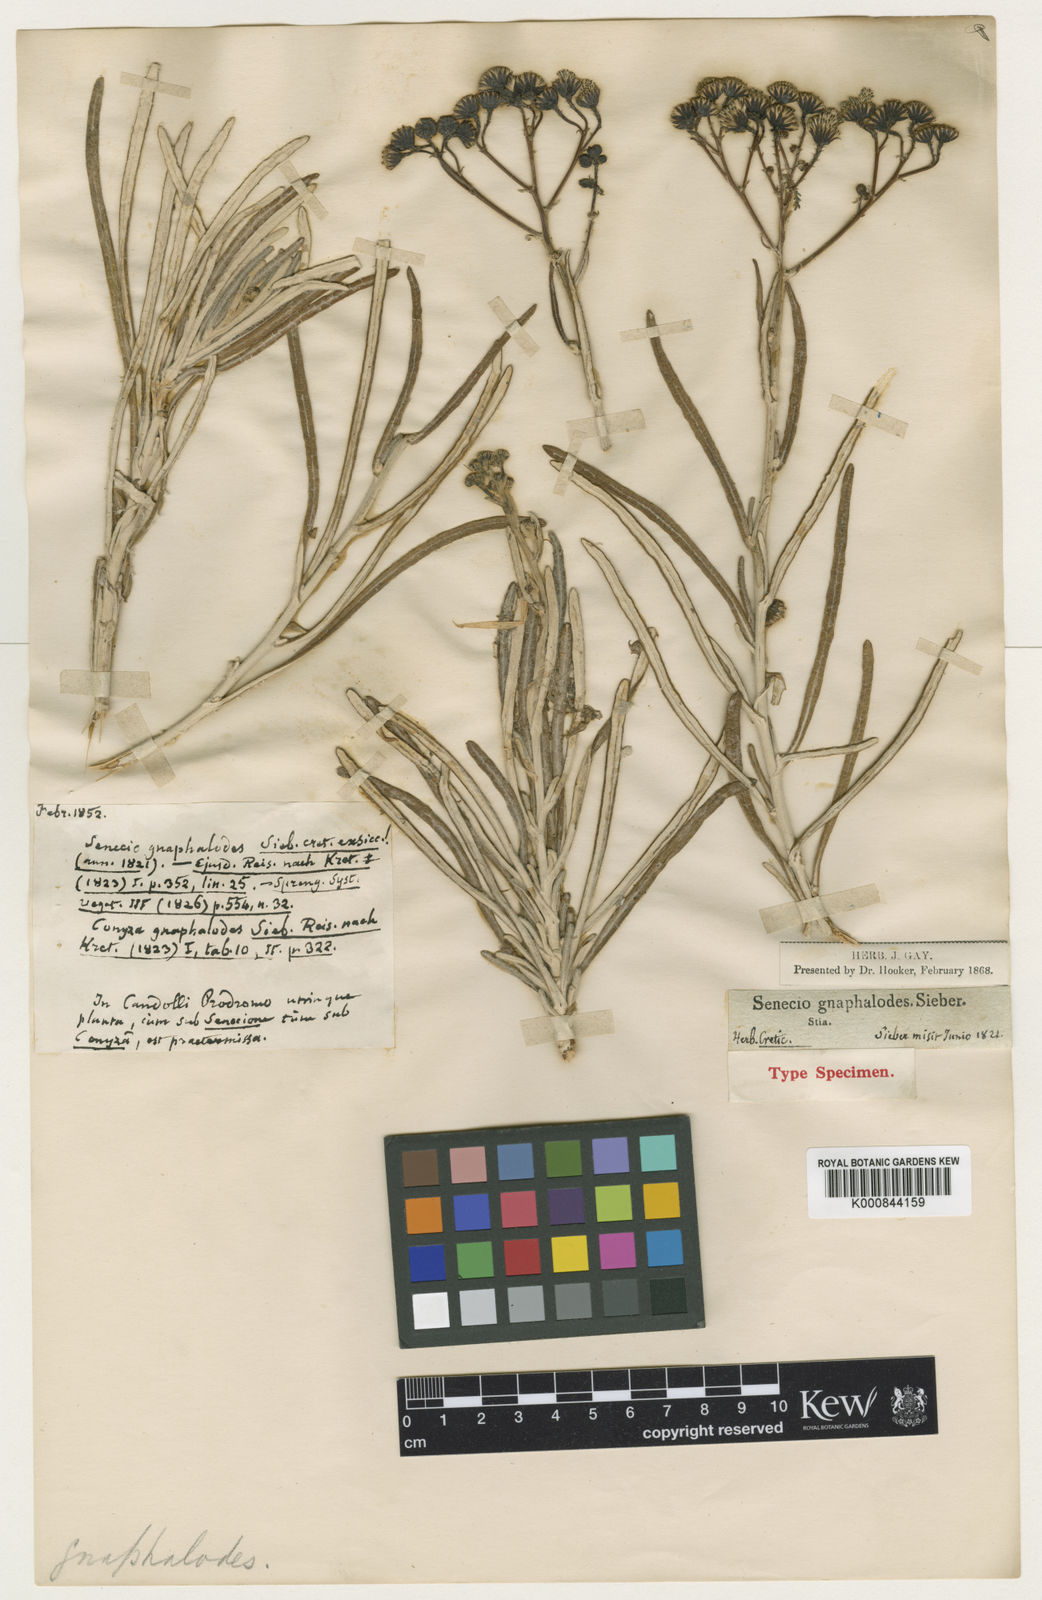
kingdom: Plantae
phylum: Tracheophyta
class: Magnoliopsida
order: Asterales
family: Asteraceae
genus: Jacobaea
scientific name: Jacobaea gnaphalioides
